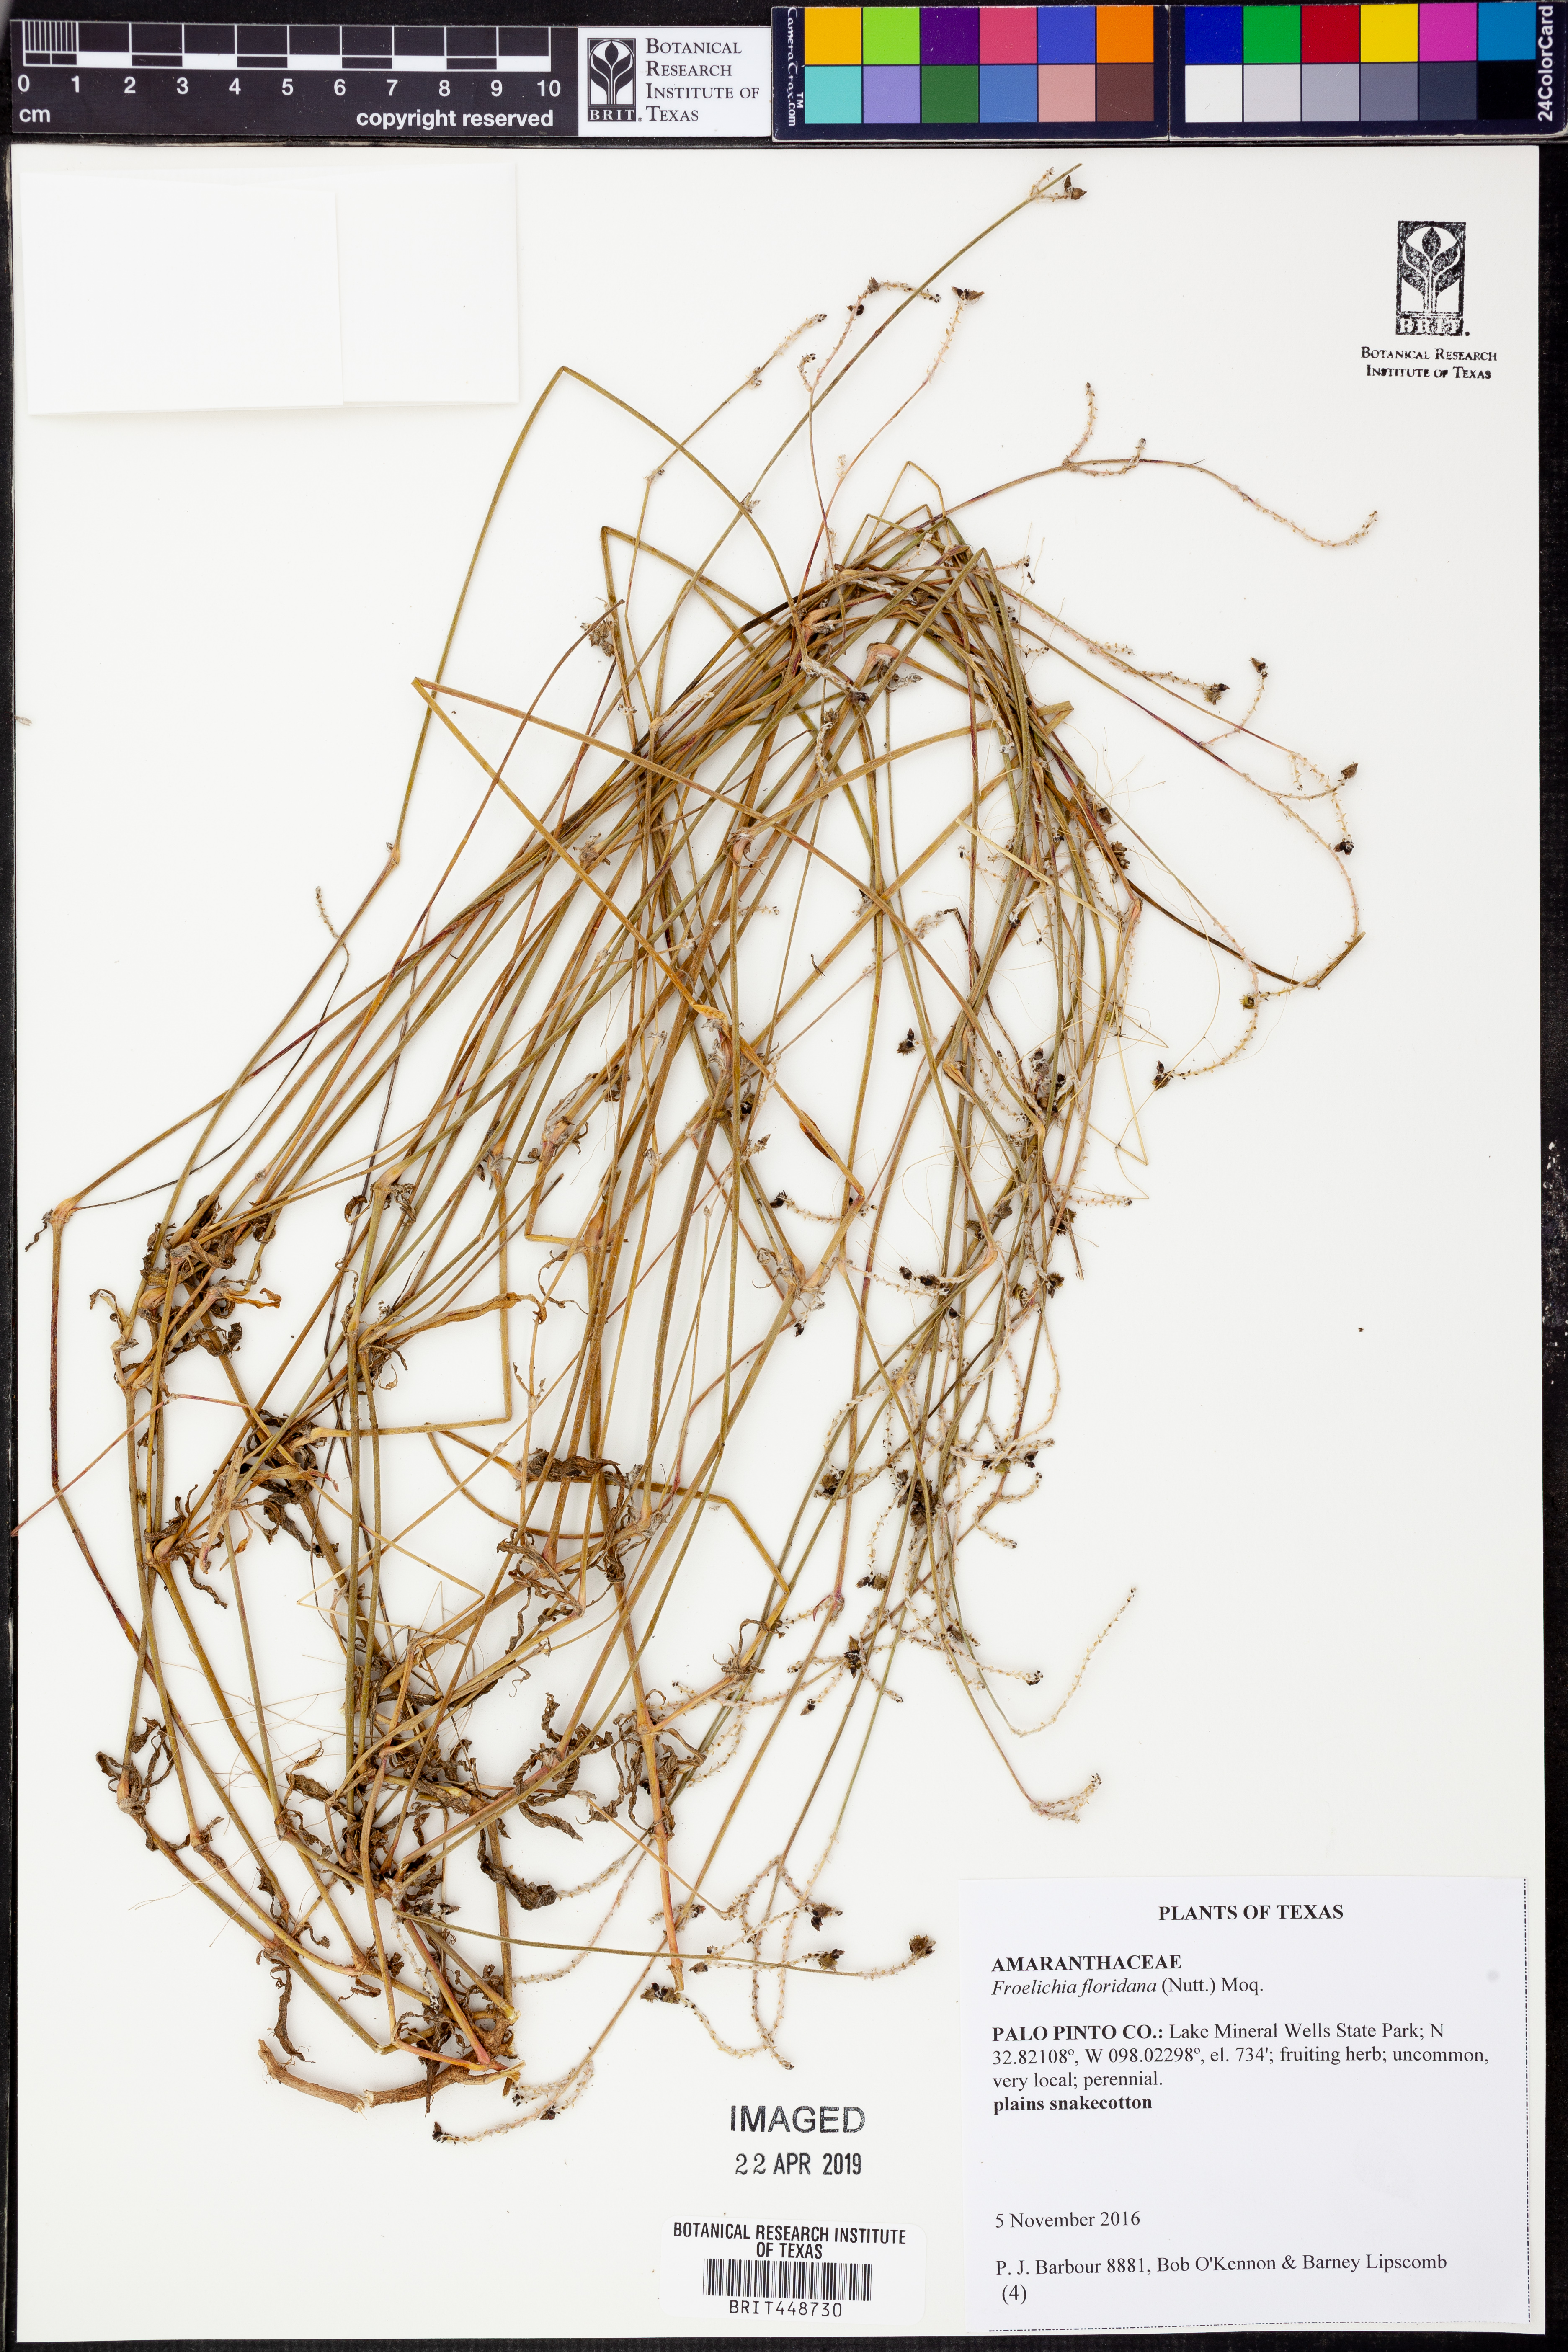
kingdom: Plantae
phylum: Tracheophyta
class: Magnoliopsida
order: Caryophyllales
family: Amaranthaceae
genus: Froelichia
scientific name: Froelichia floridana
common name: Florida snake-cotton
